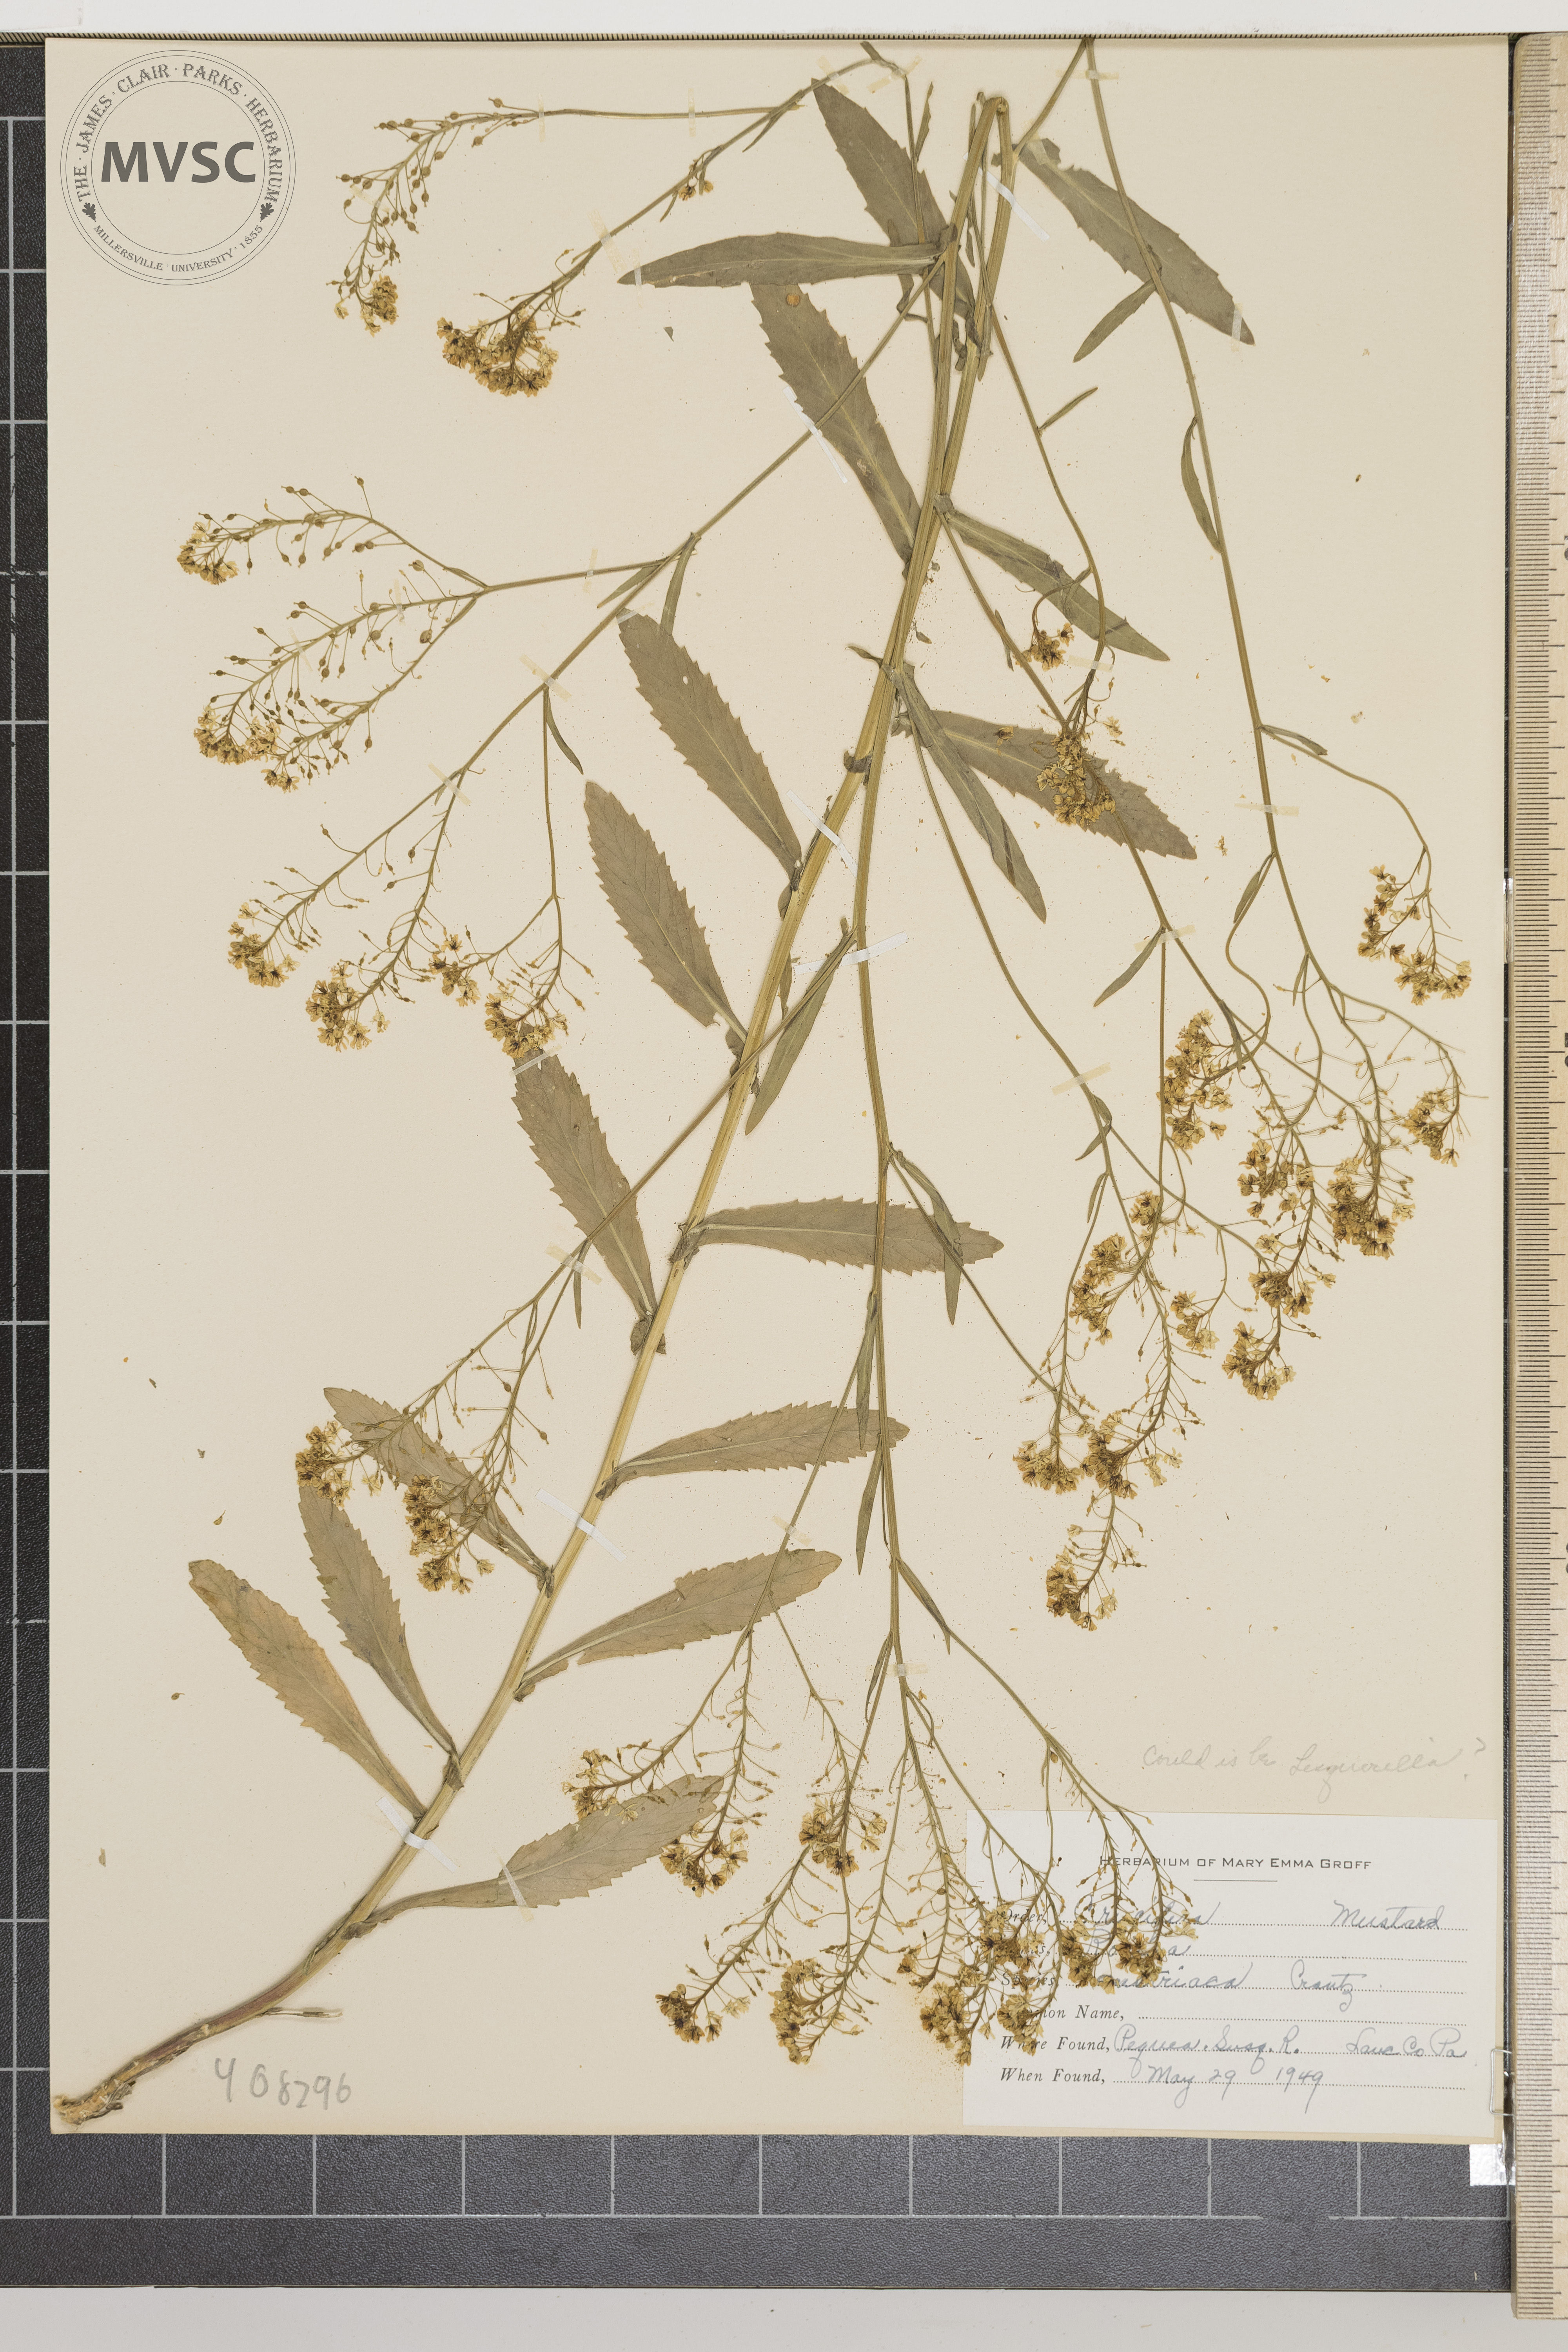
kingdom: Plantae
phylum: Tracheophyta
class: Magnoliopsida
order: Brassicales
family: Brassicaceae
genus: Rorippa
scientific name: Rorippa austriaca
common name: Austrian yellow-cress
